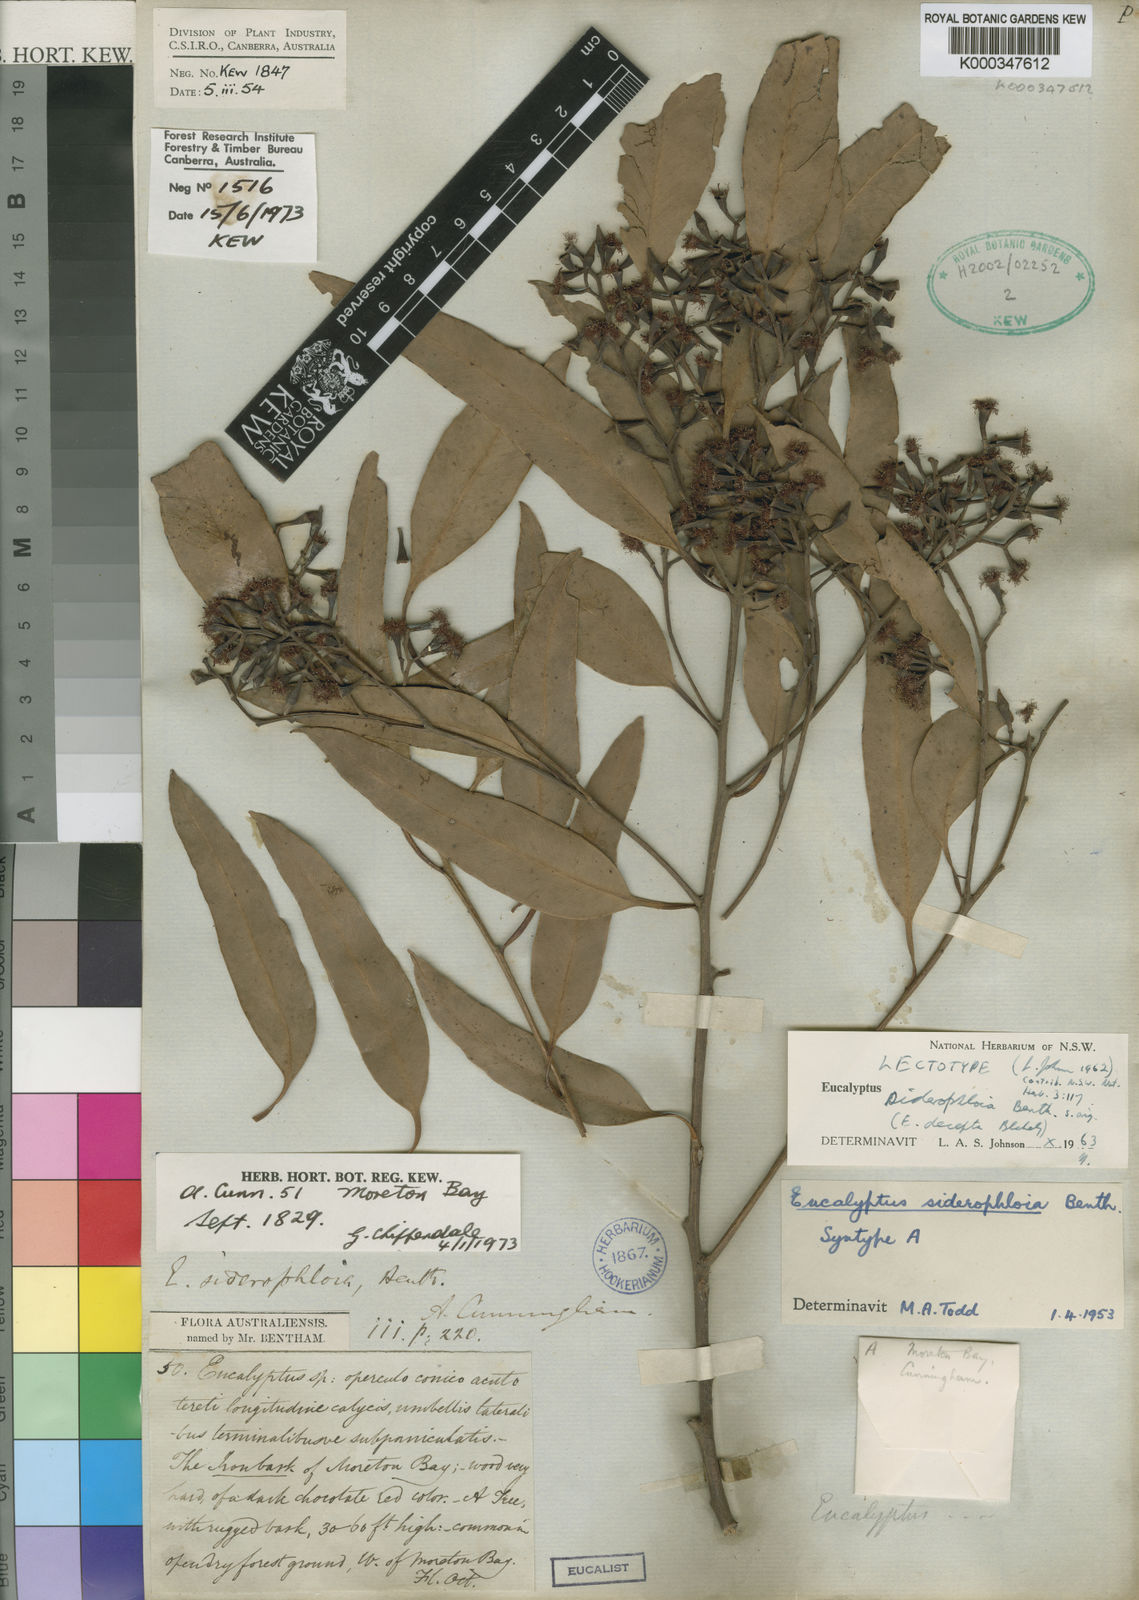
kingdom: Plantae
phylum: Tracheophyta
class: Magnoliopsida
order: Myrtales
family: Myrtaceae
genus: Eucalyptus
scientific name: Eucalyptus siderophloia
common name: Broad-leafed-ironbark
